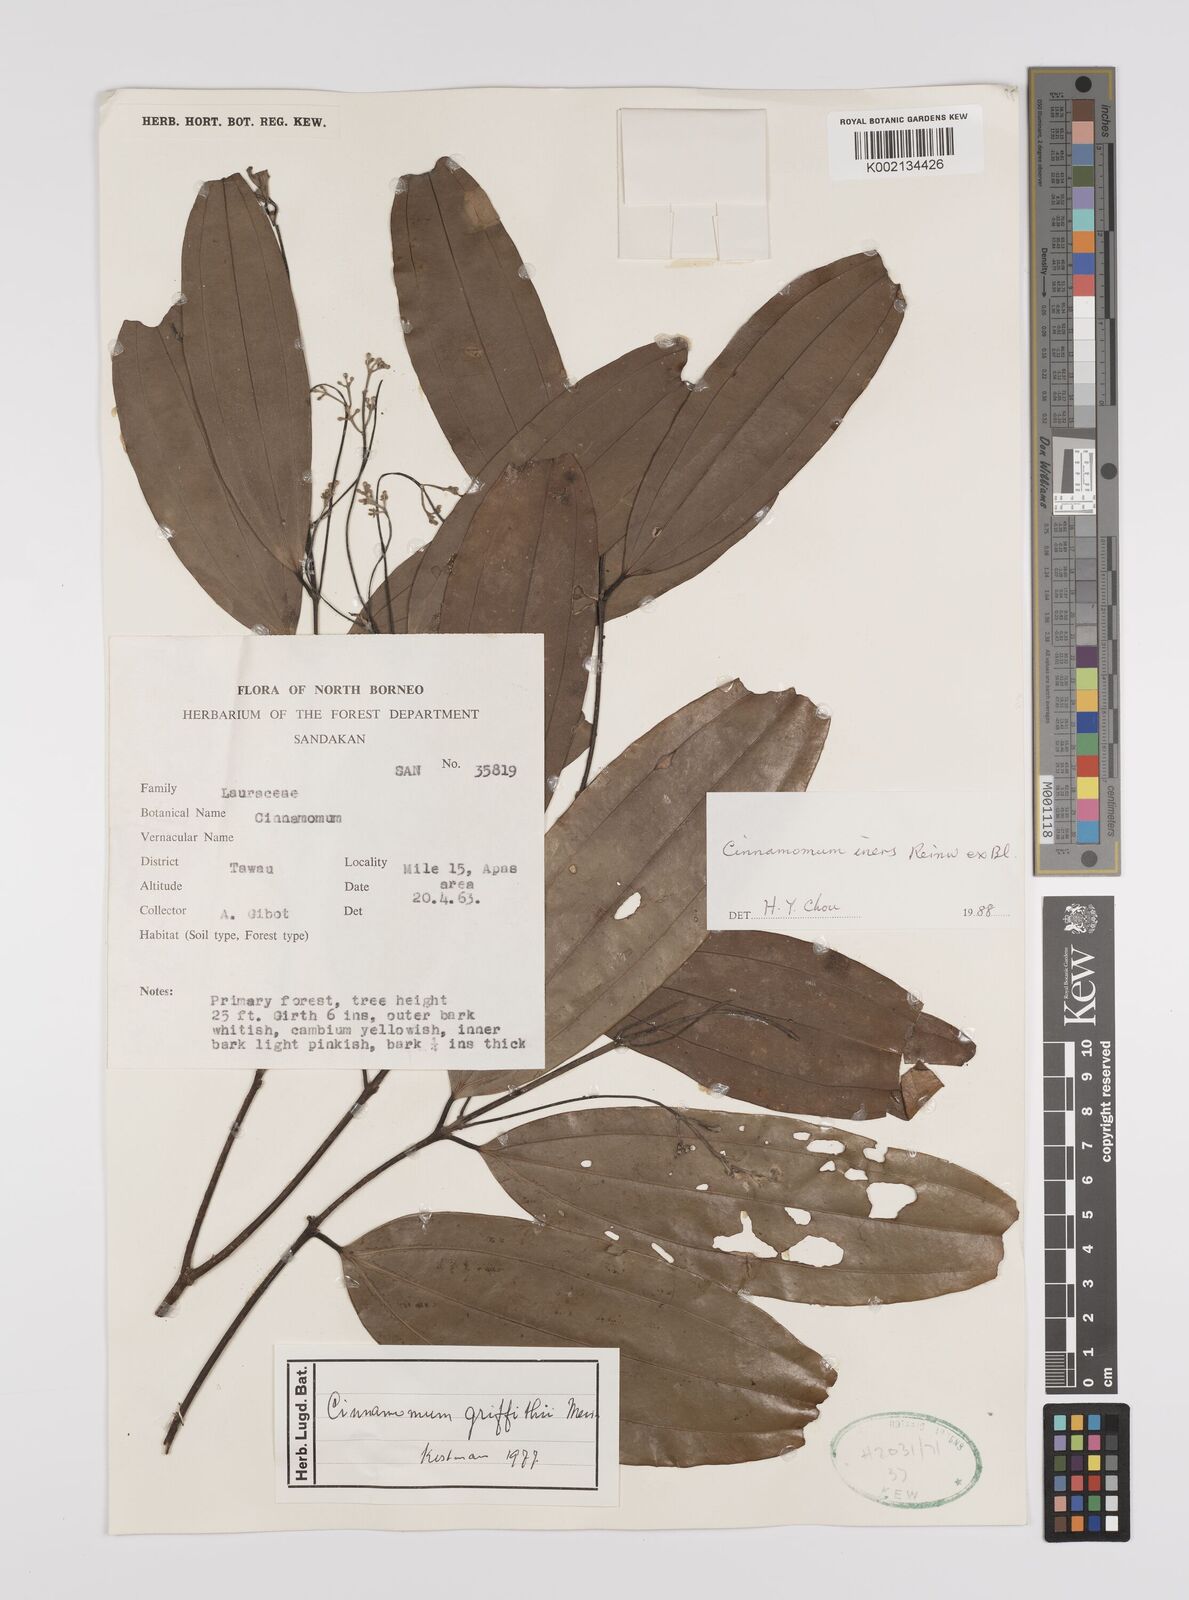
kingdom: Plantae
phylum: Tracheophyta
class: Magnoliopsida
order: Laurales
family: Lauraceae
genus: Cinnamomum
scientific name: Cinnamomum iners
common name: Wild cinnamon
